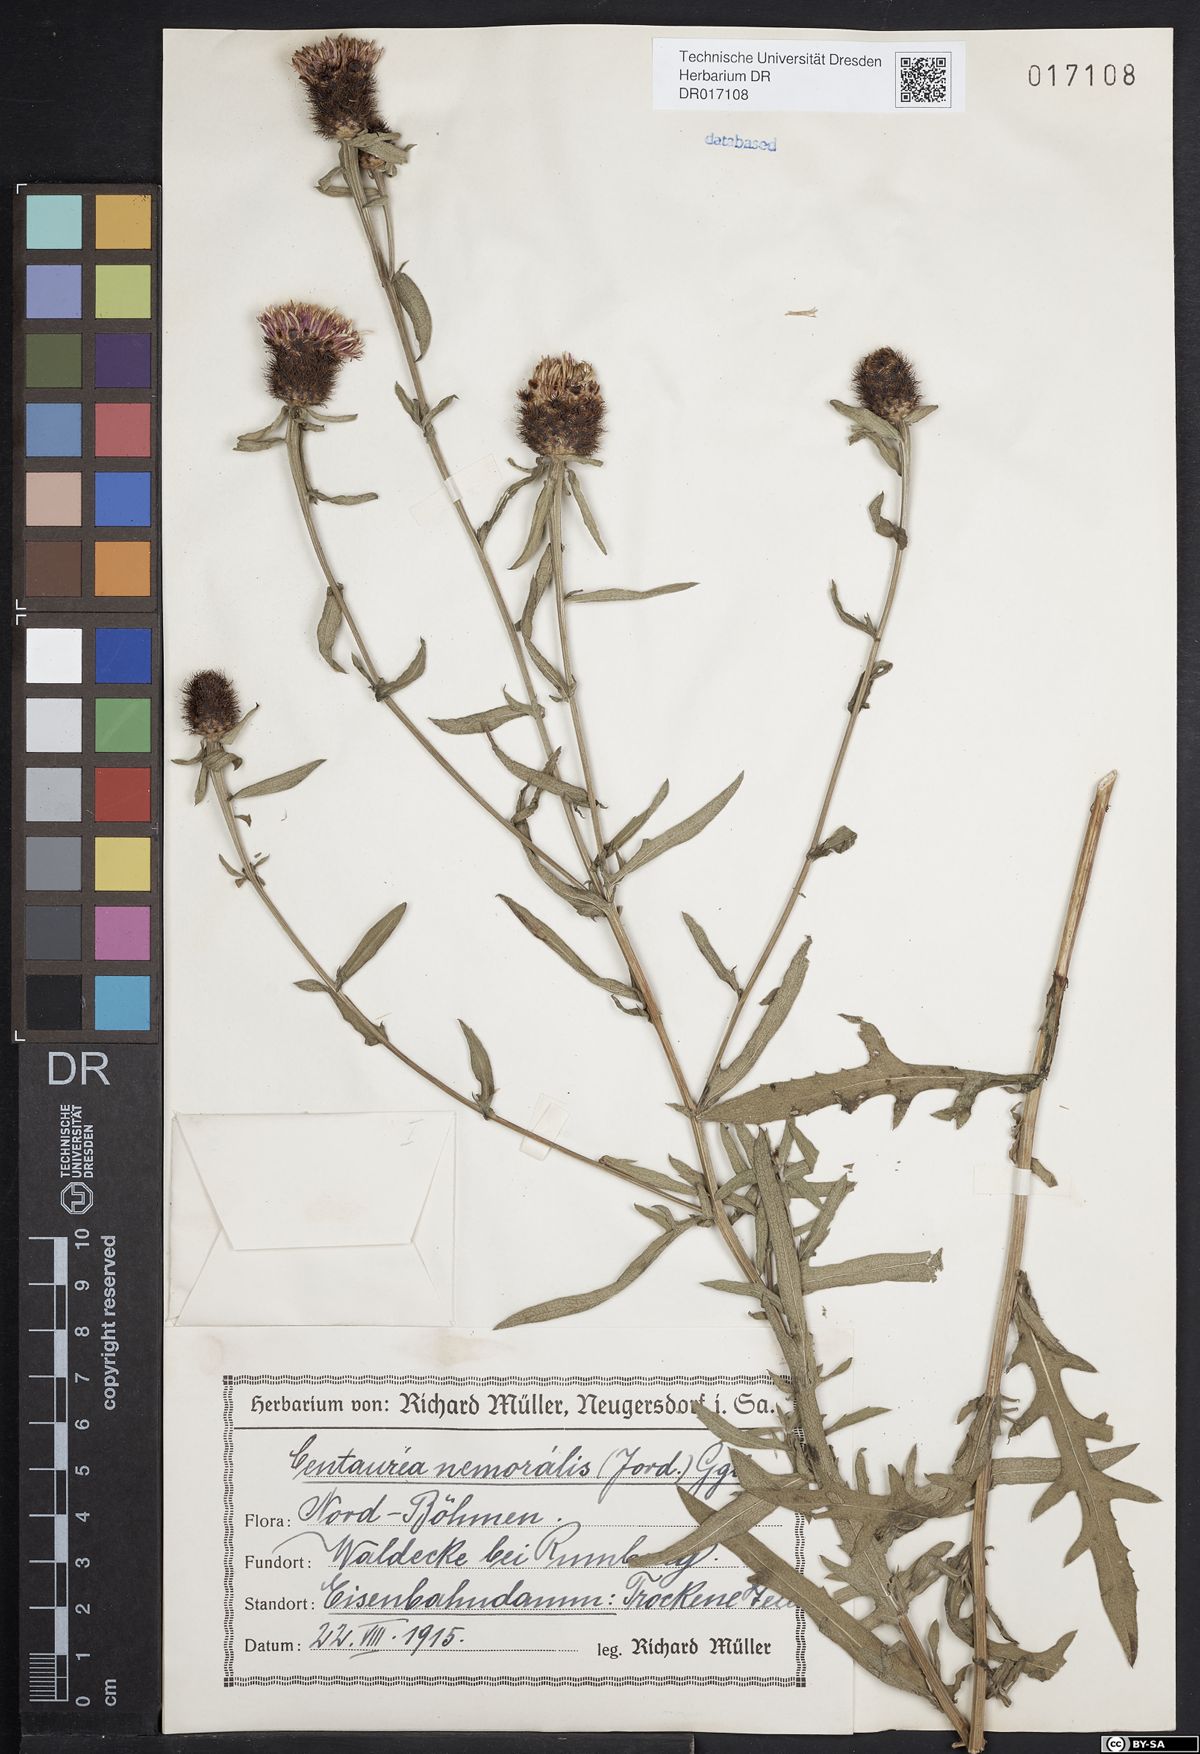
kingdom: Plantae
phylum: Tracheophyta
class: Magnoliopsida
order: Asterales
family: Asteraceae
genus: Centaurea
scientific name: Centaurea nigra
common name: Lesser knapweed
